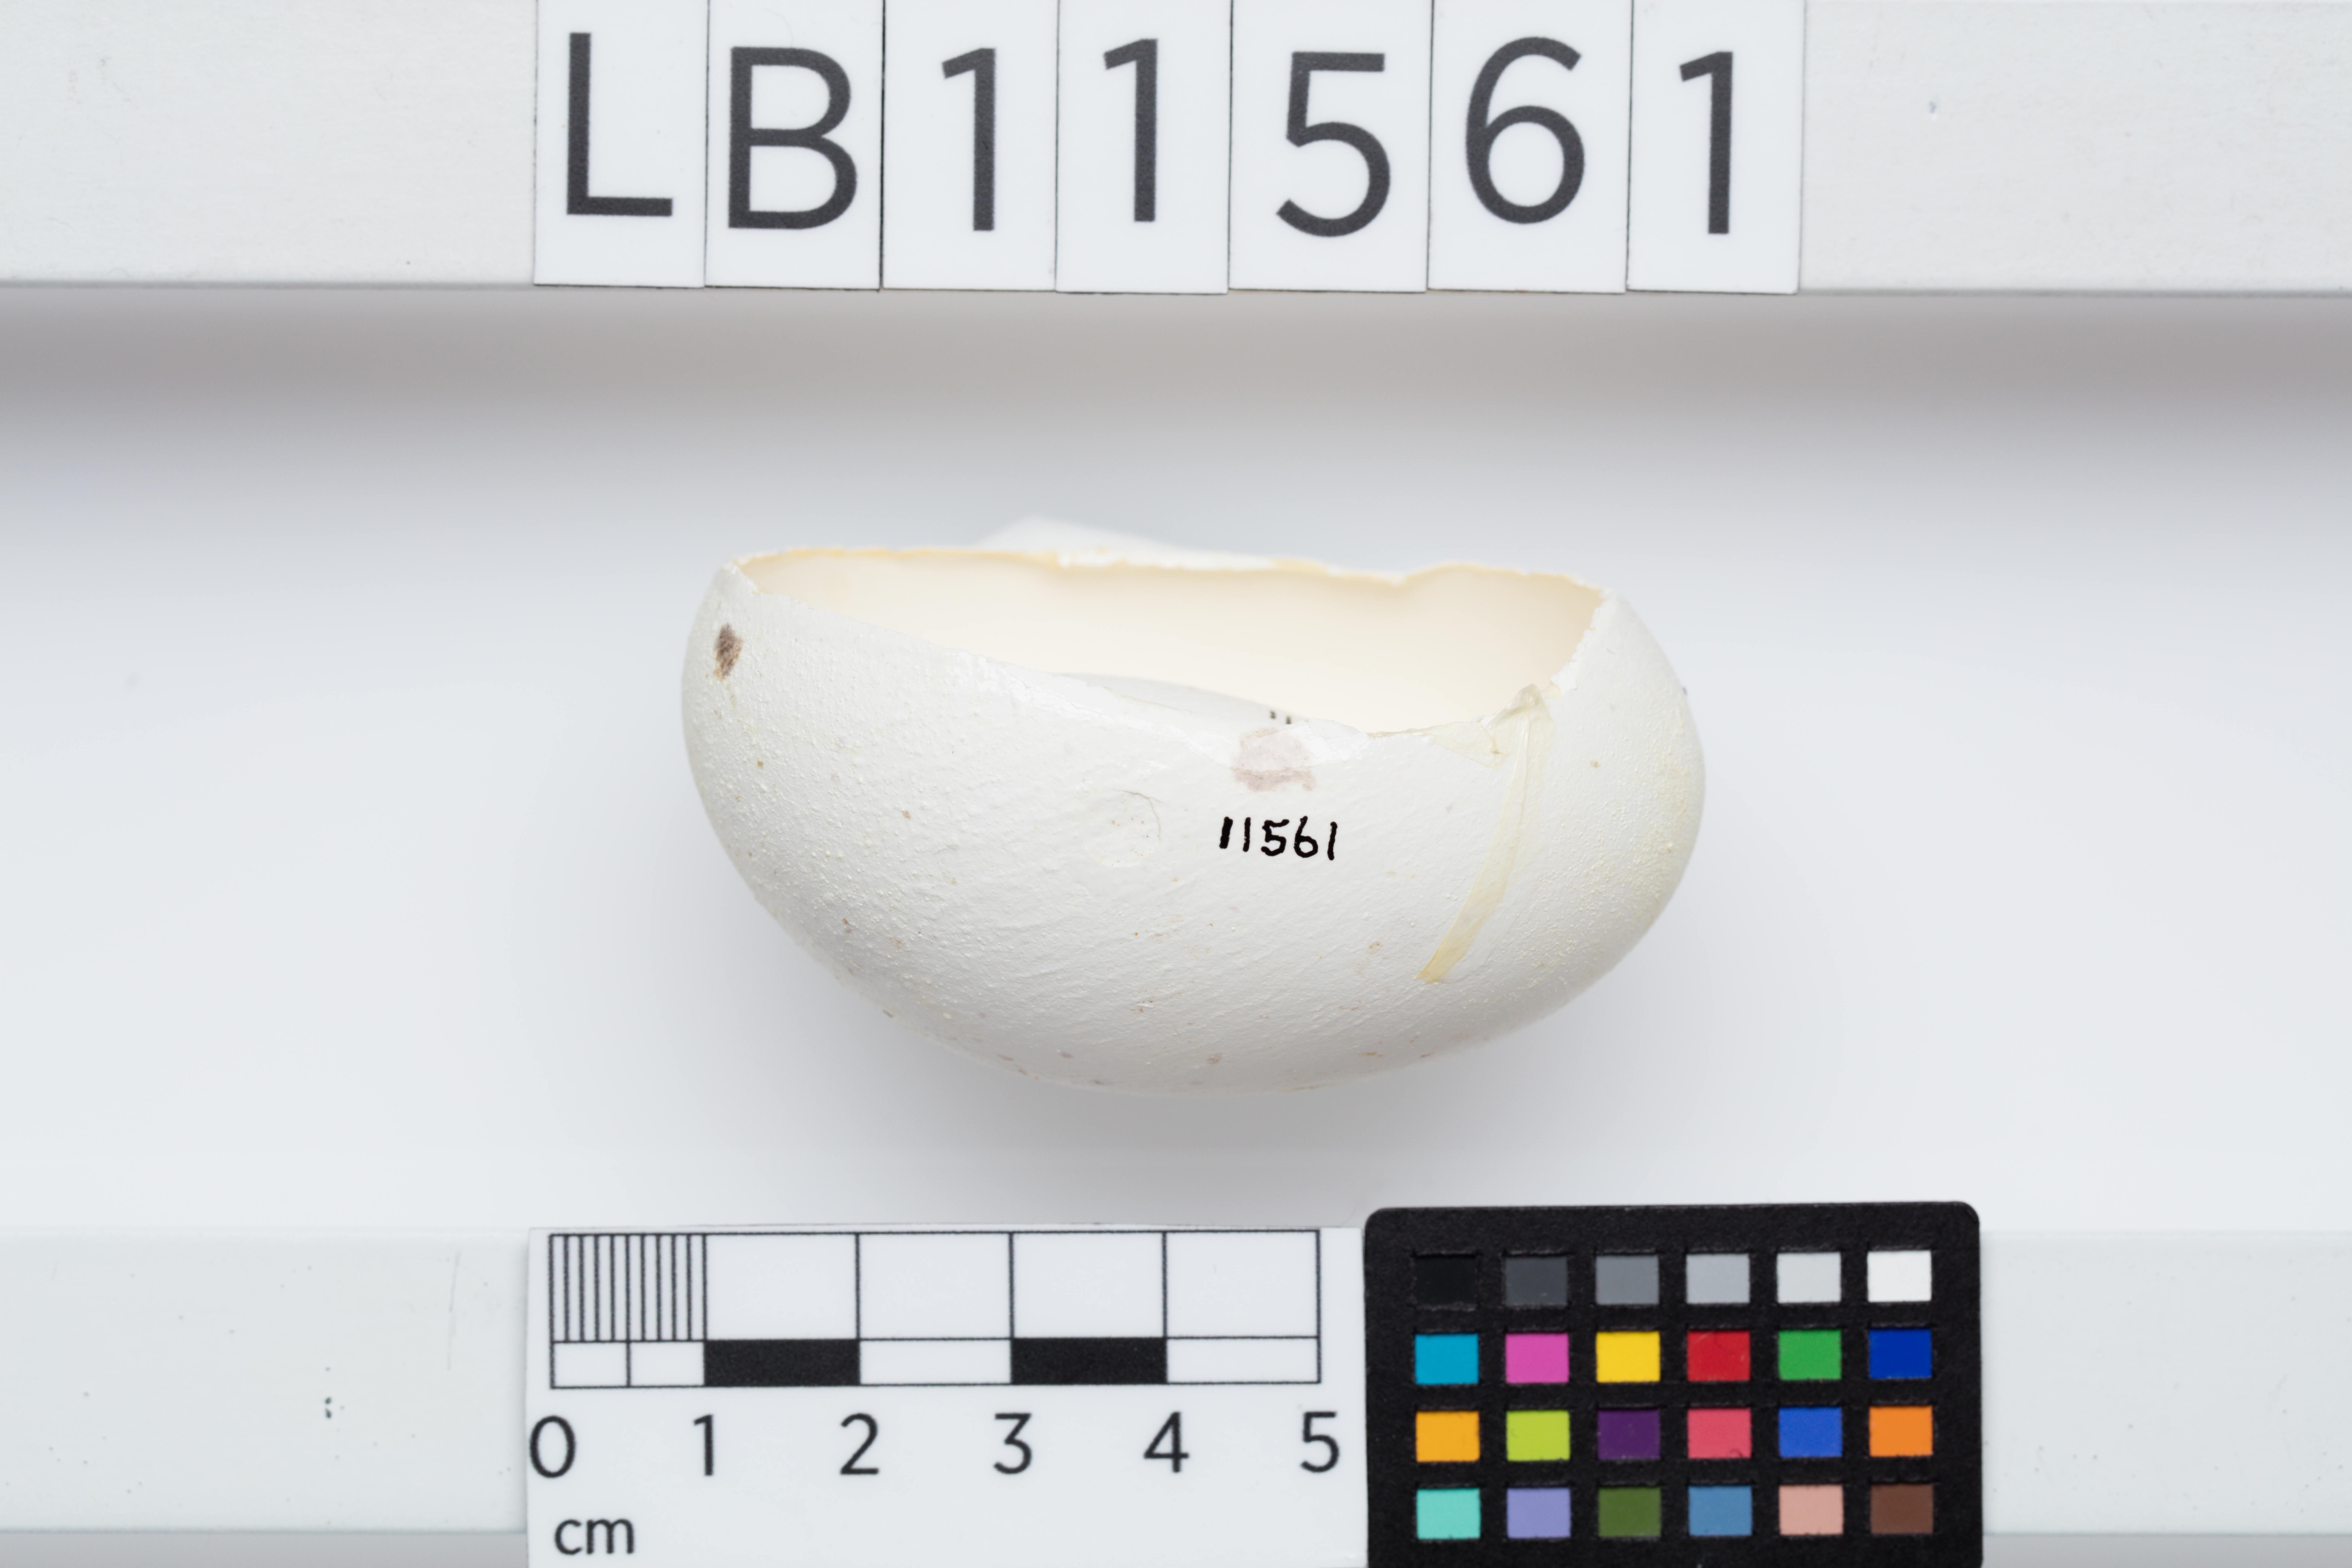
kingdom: Animalia
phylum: Chordata
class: Aves
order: Gruiformes
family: Rallidae
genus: Porphyrio
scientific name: Porphyrio hochstetteri
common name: South island takahe
